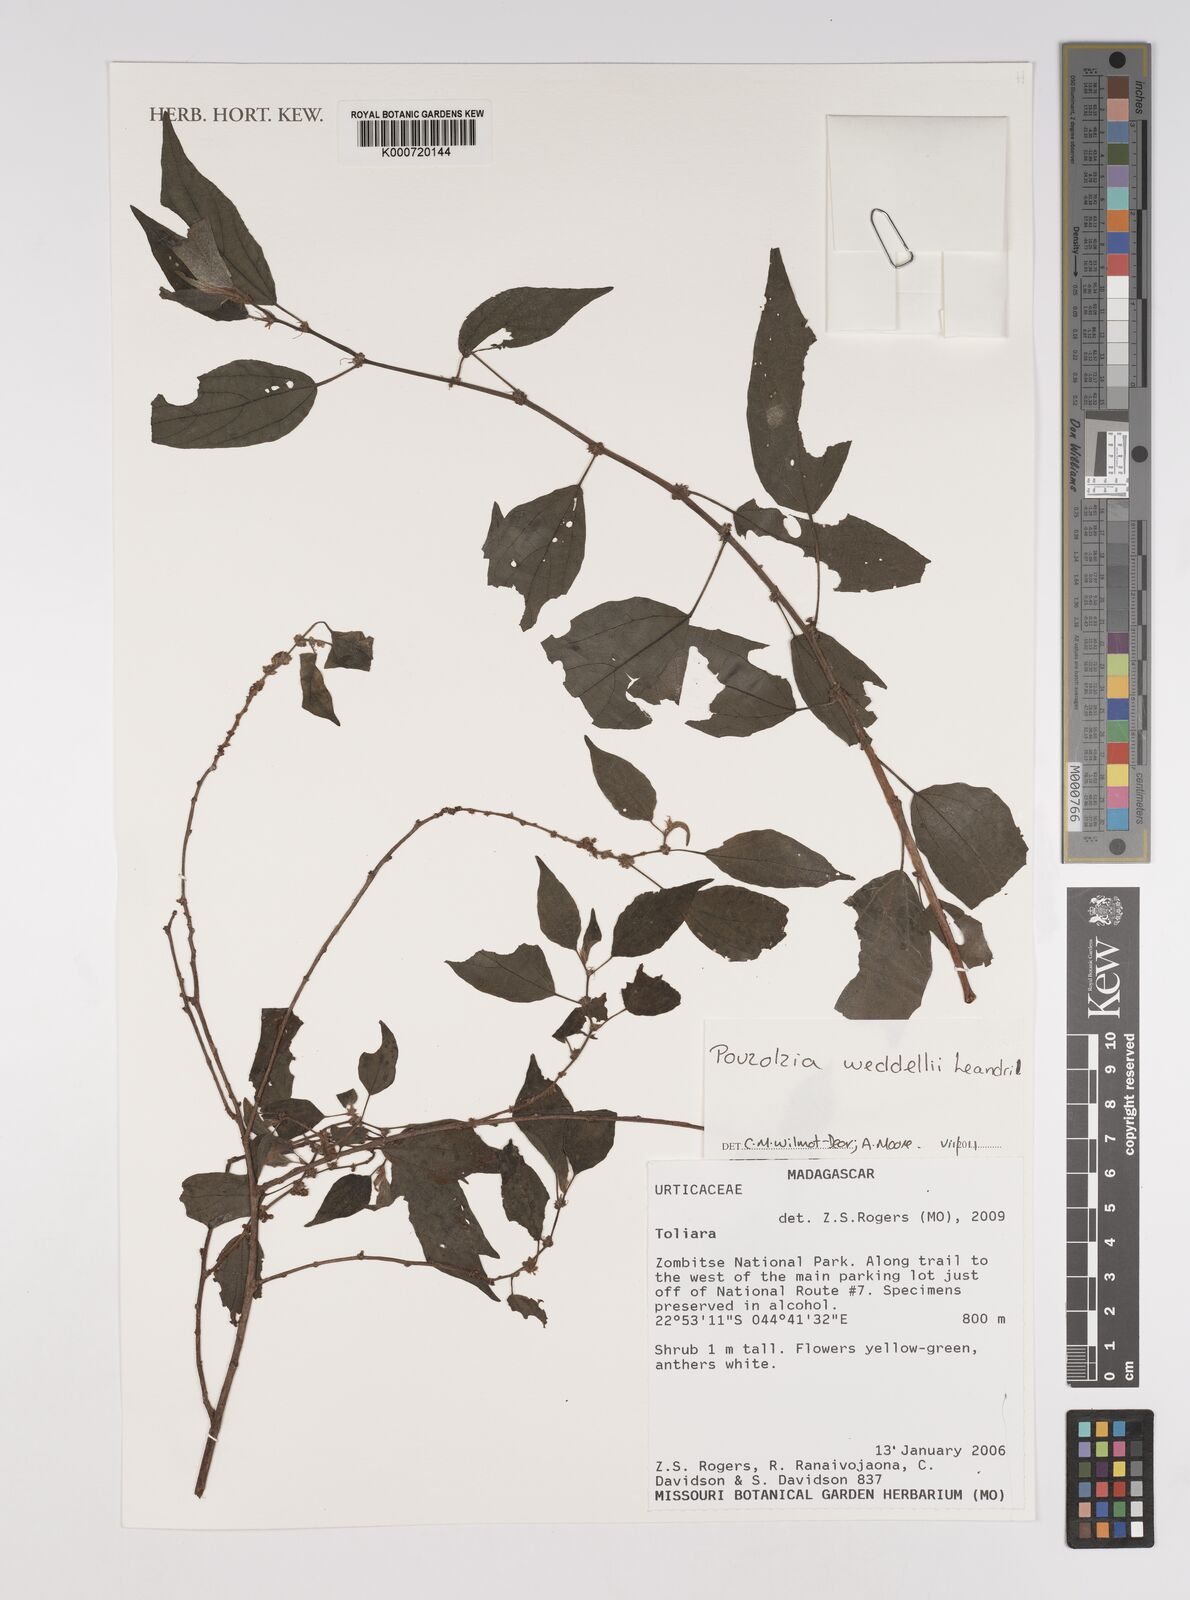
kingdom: Plantae
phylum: Tracheophyta
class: Magnoliopsida
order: Rosales
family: Urticaceae
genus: Pouzolzia
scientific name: Pouzolzia weddellii
